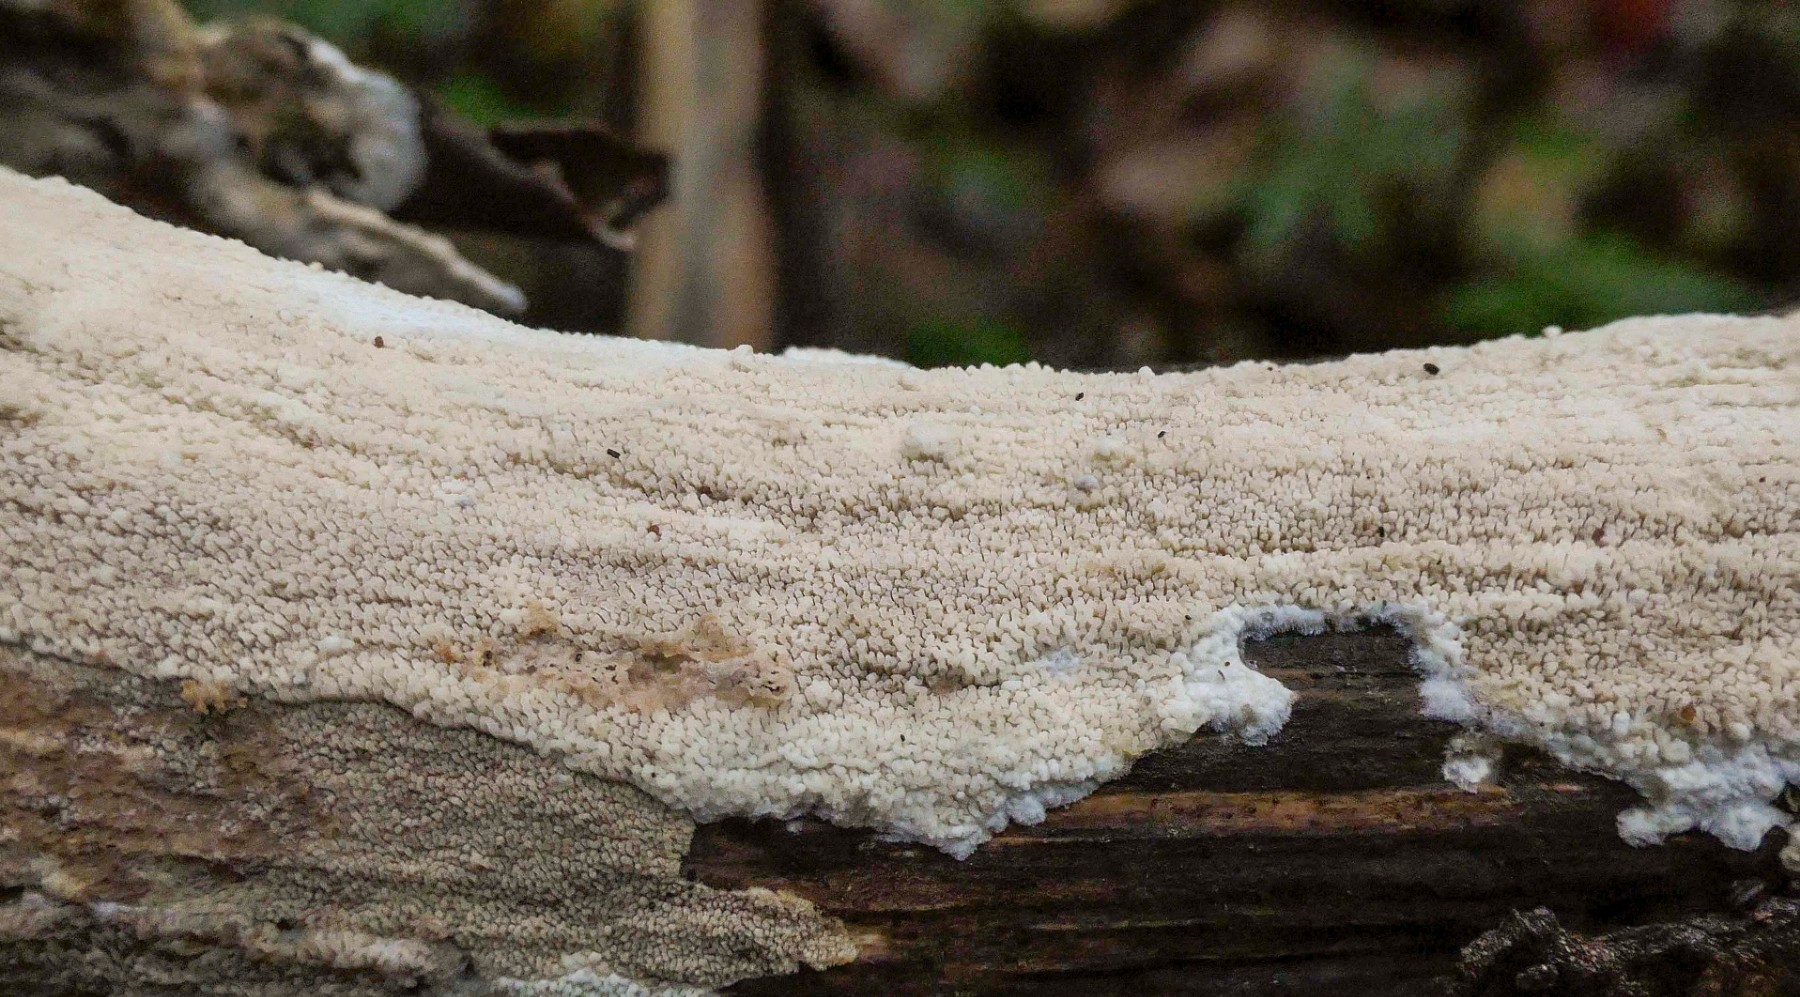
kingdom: Fungi
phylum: Basidiomycota
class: Agaricomycetes
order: Polyporales
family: Meruliaceae
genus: Phlebia
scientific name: Phlebia rufa
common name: ege-åresvamp
